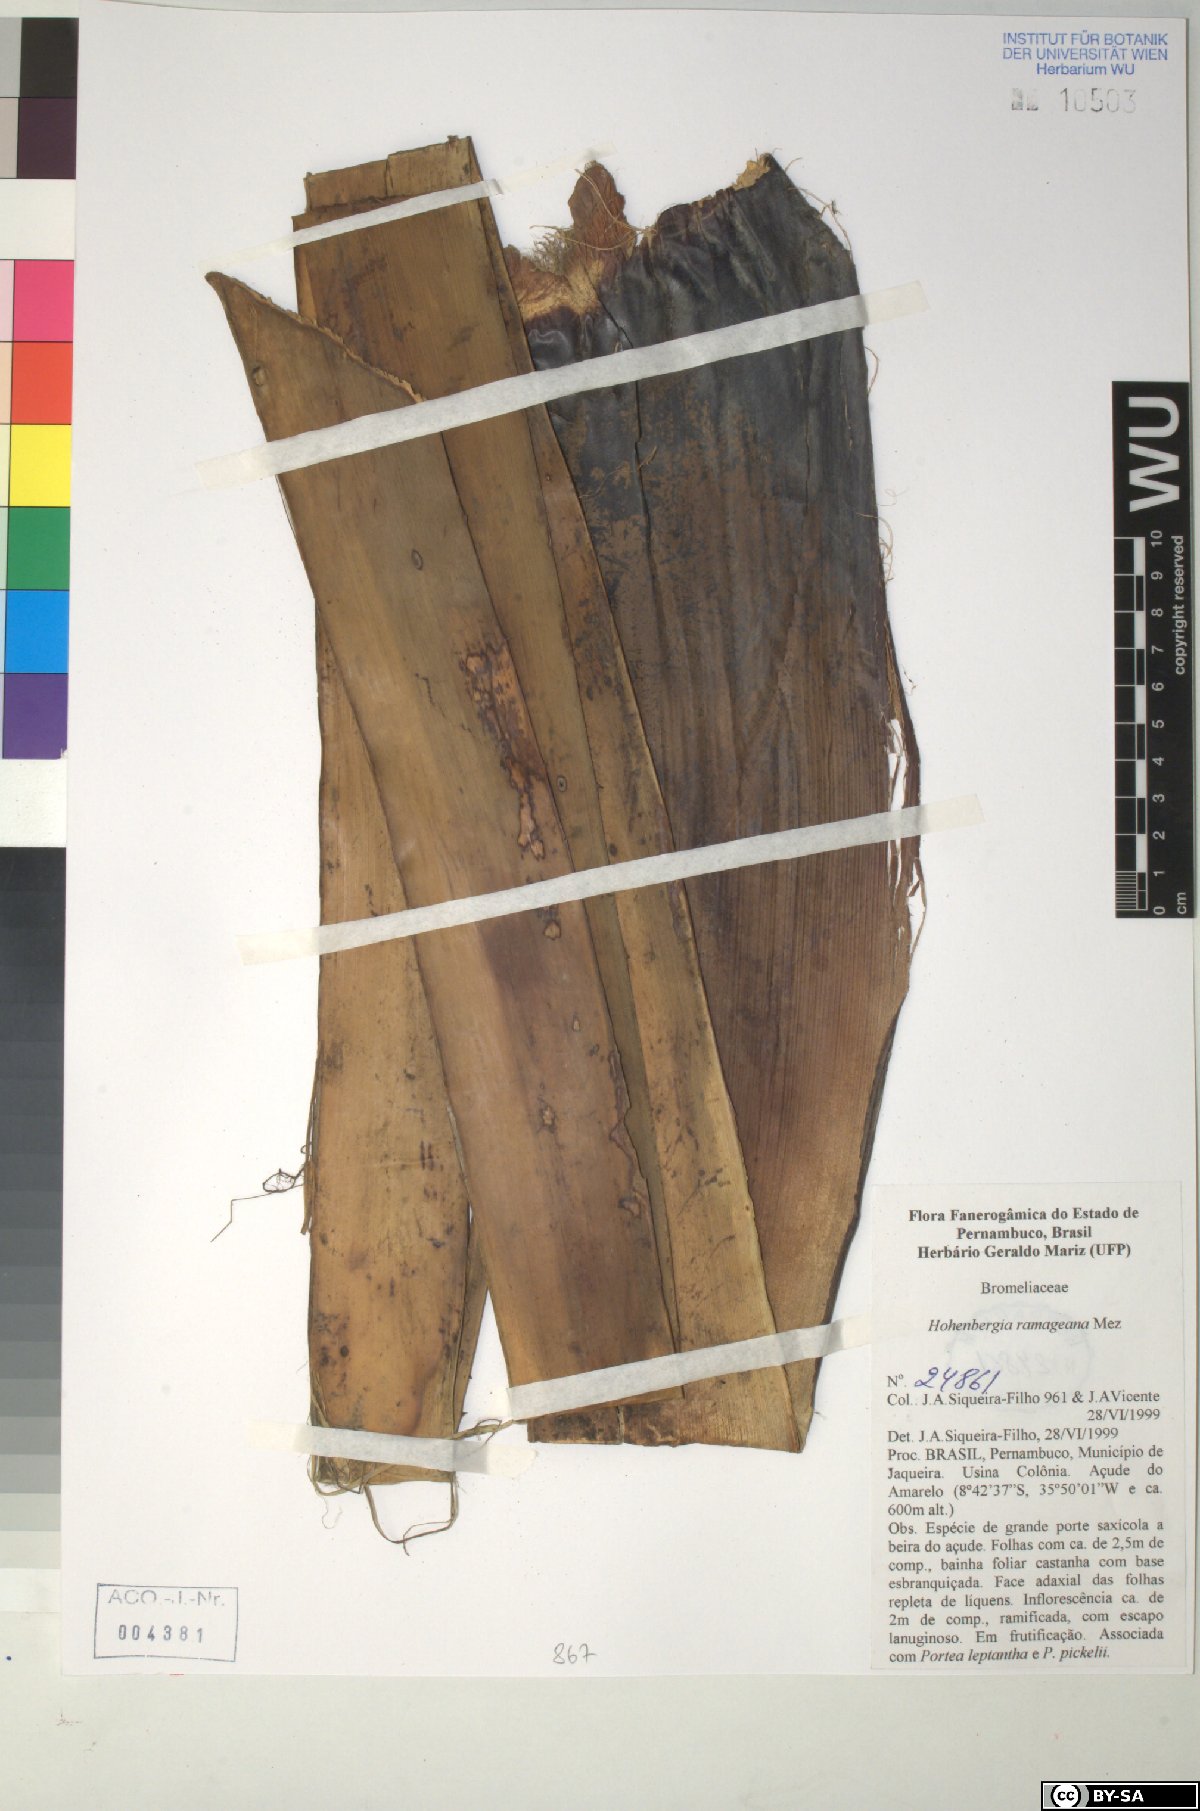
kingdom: Plantae
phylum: Tracheophyta
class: Liliopsida
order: Poales
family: Bromeliaceae
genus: Hohenbergia
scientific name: Hohenbergia ridleyi
